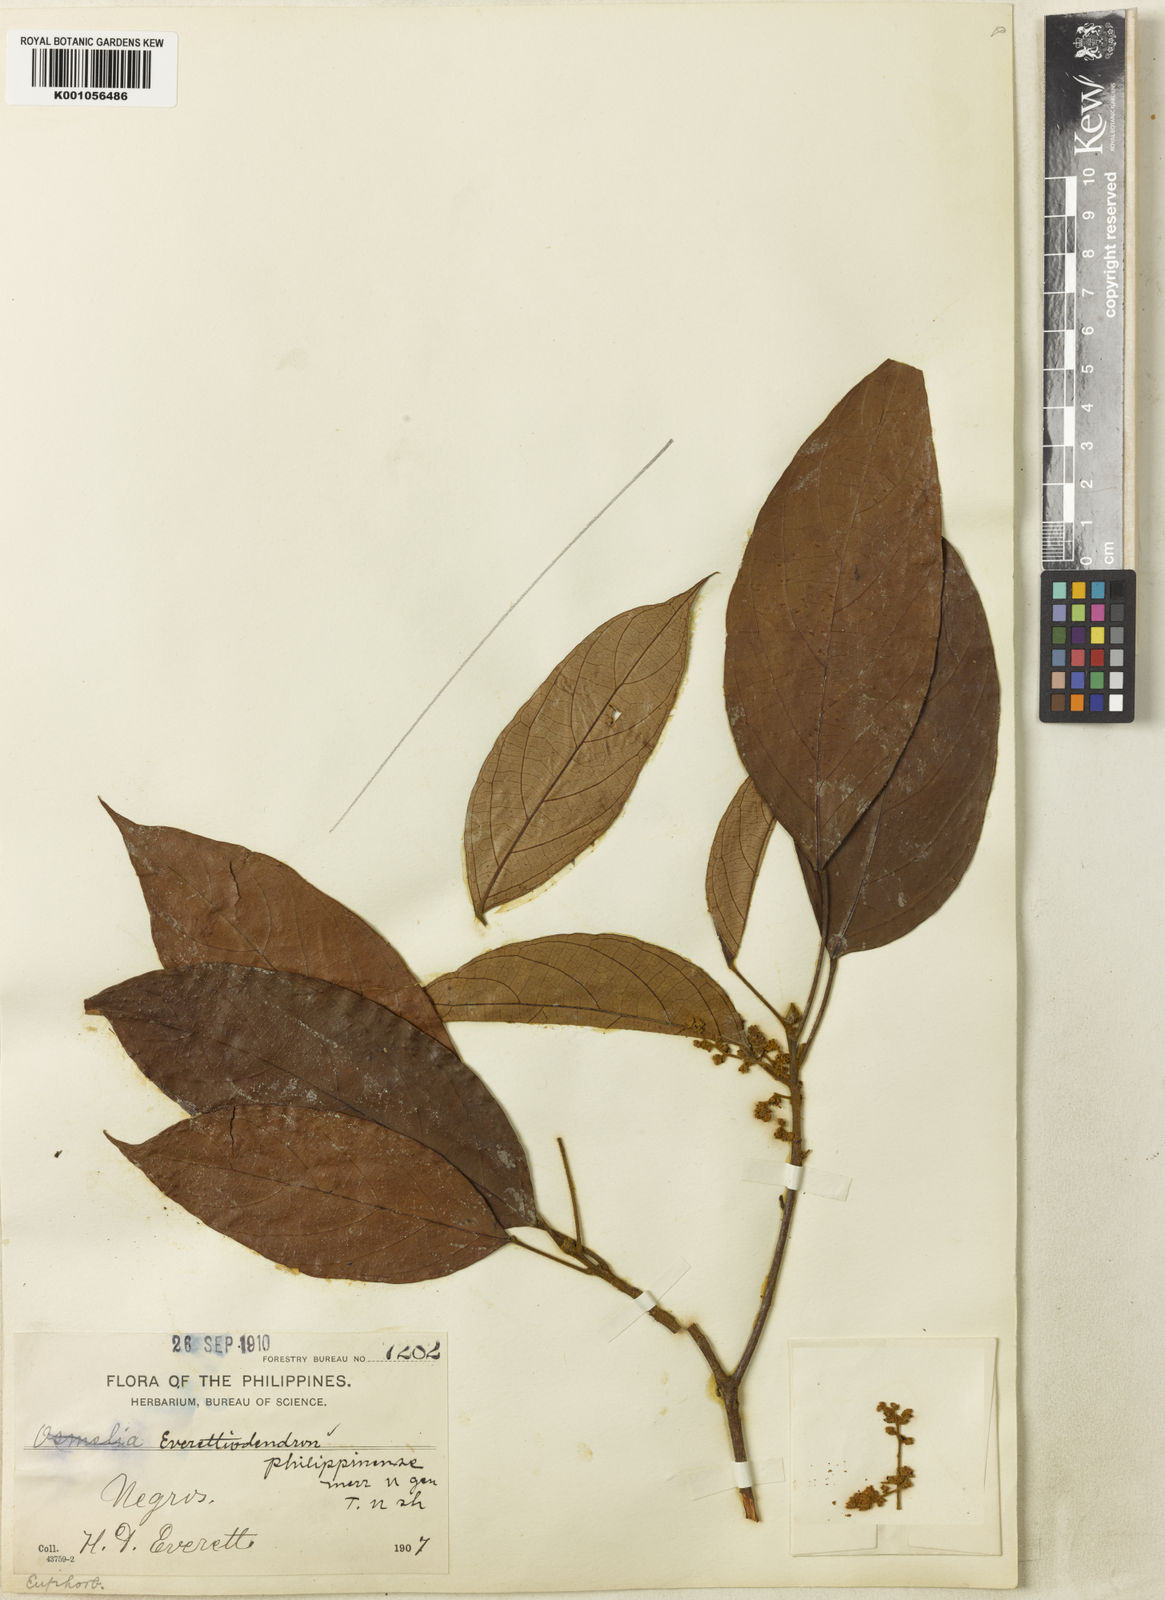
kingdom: Plantae
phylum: Tracheophyta
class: Magnoliopsida
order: Malpighiales
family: Phyllanthaceae
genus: Baccaurea
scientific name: Baccaurea philippinensis
